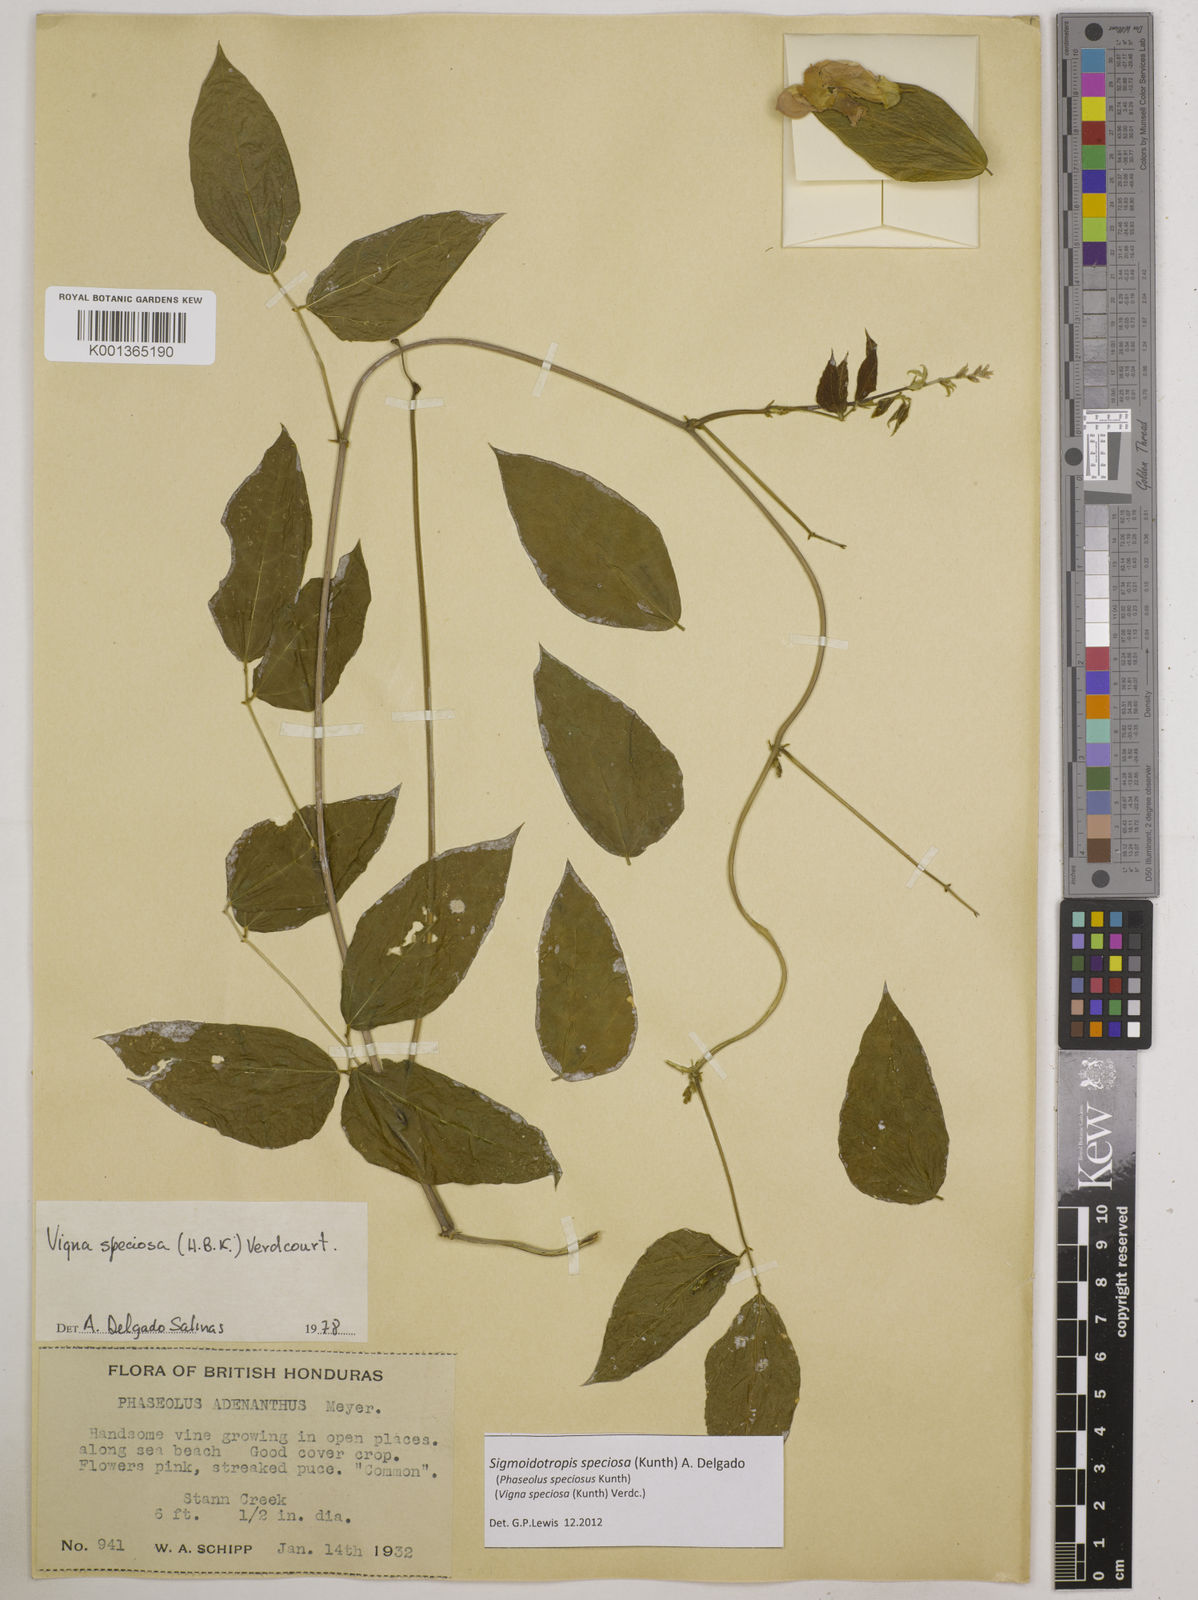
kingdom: Plantae
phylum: Tracheophyta
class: Magnoliopsida
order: Fabales
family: Fabaceae
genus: Sigmoidotropis
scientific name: Sigmoidotropis speciosa
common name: Snail flower
